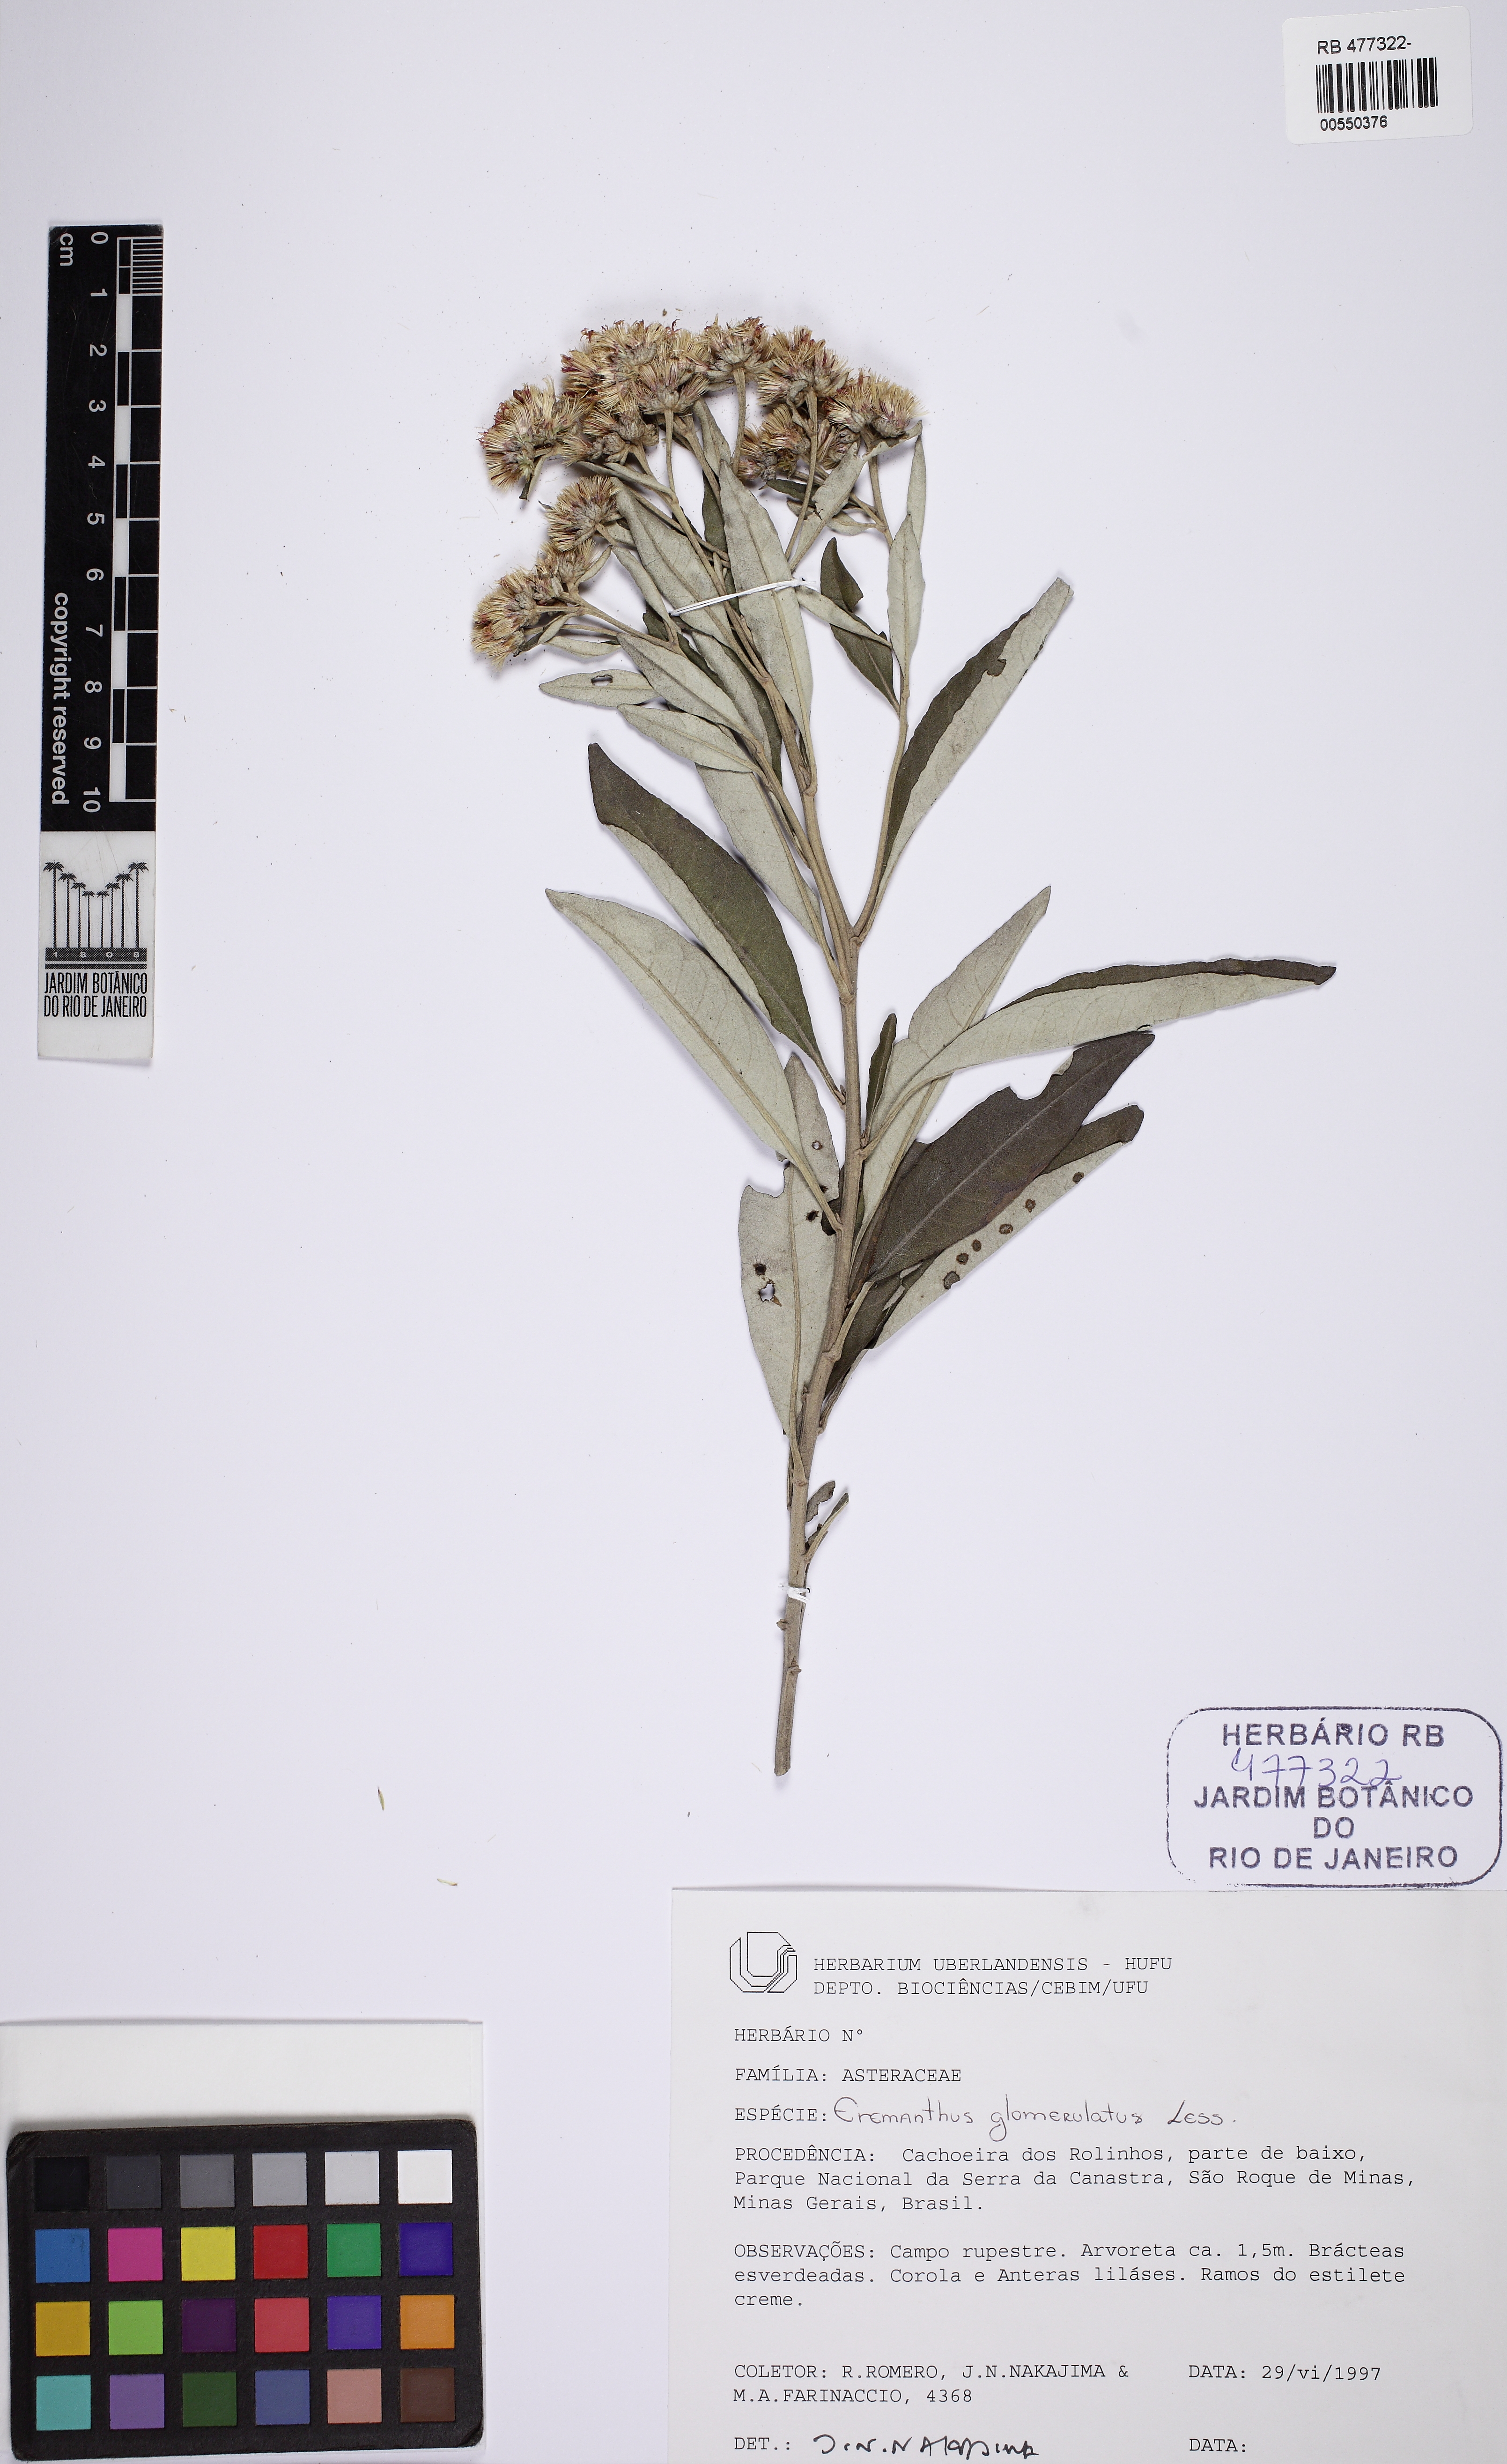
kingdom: Plantae
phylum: Tracheophyta
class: Magnoliopsida
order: Asterales
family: Asteraceae
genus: Eremanthus
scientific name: Eremanthus glomerulatus
